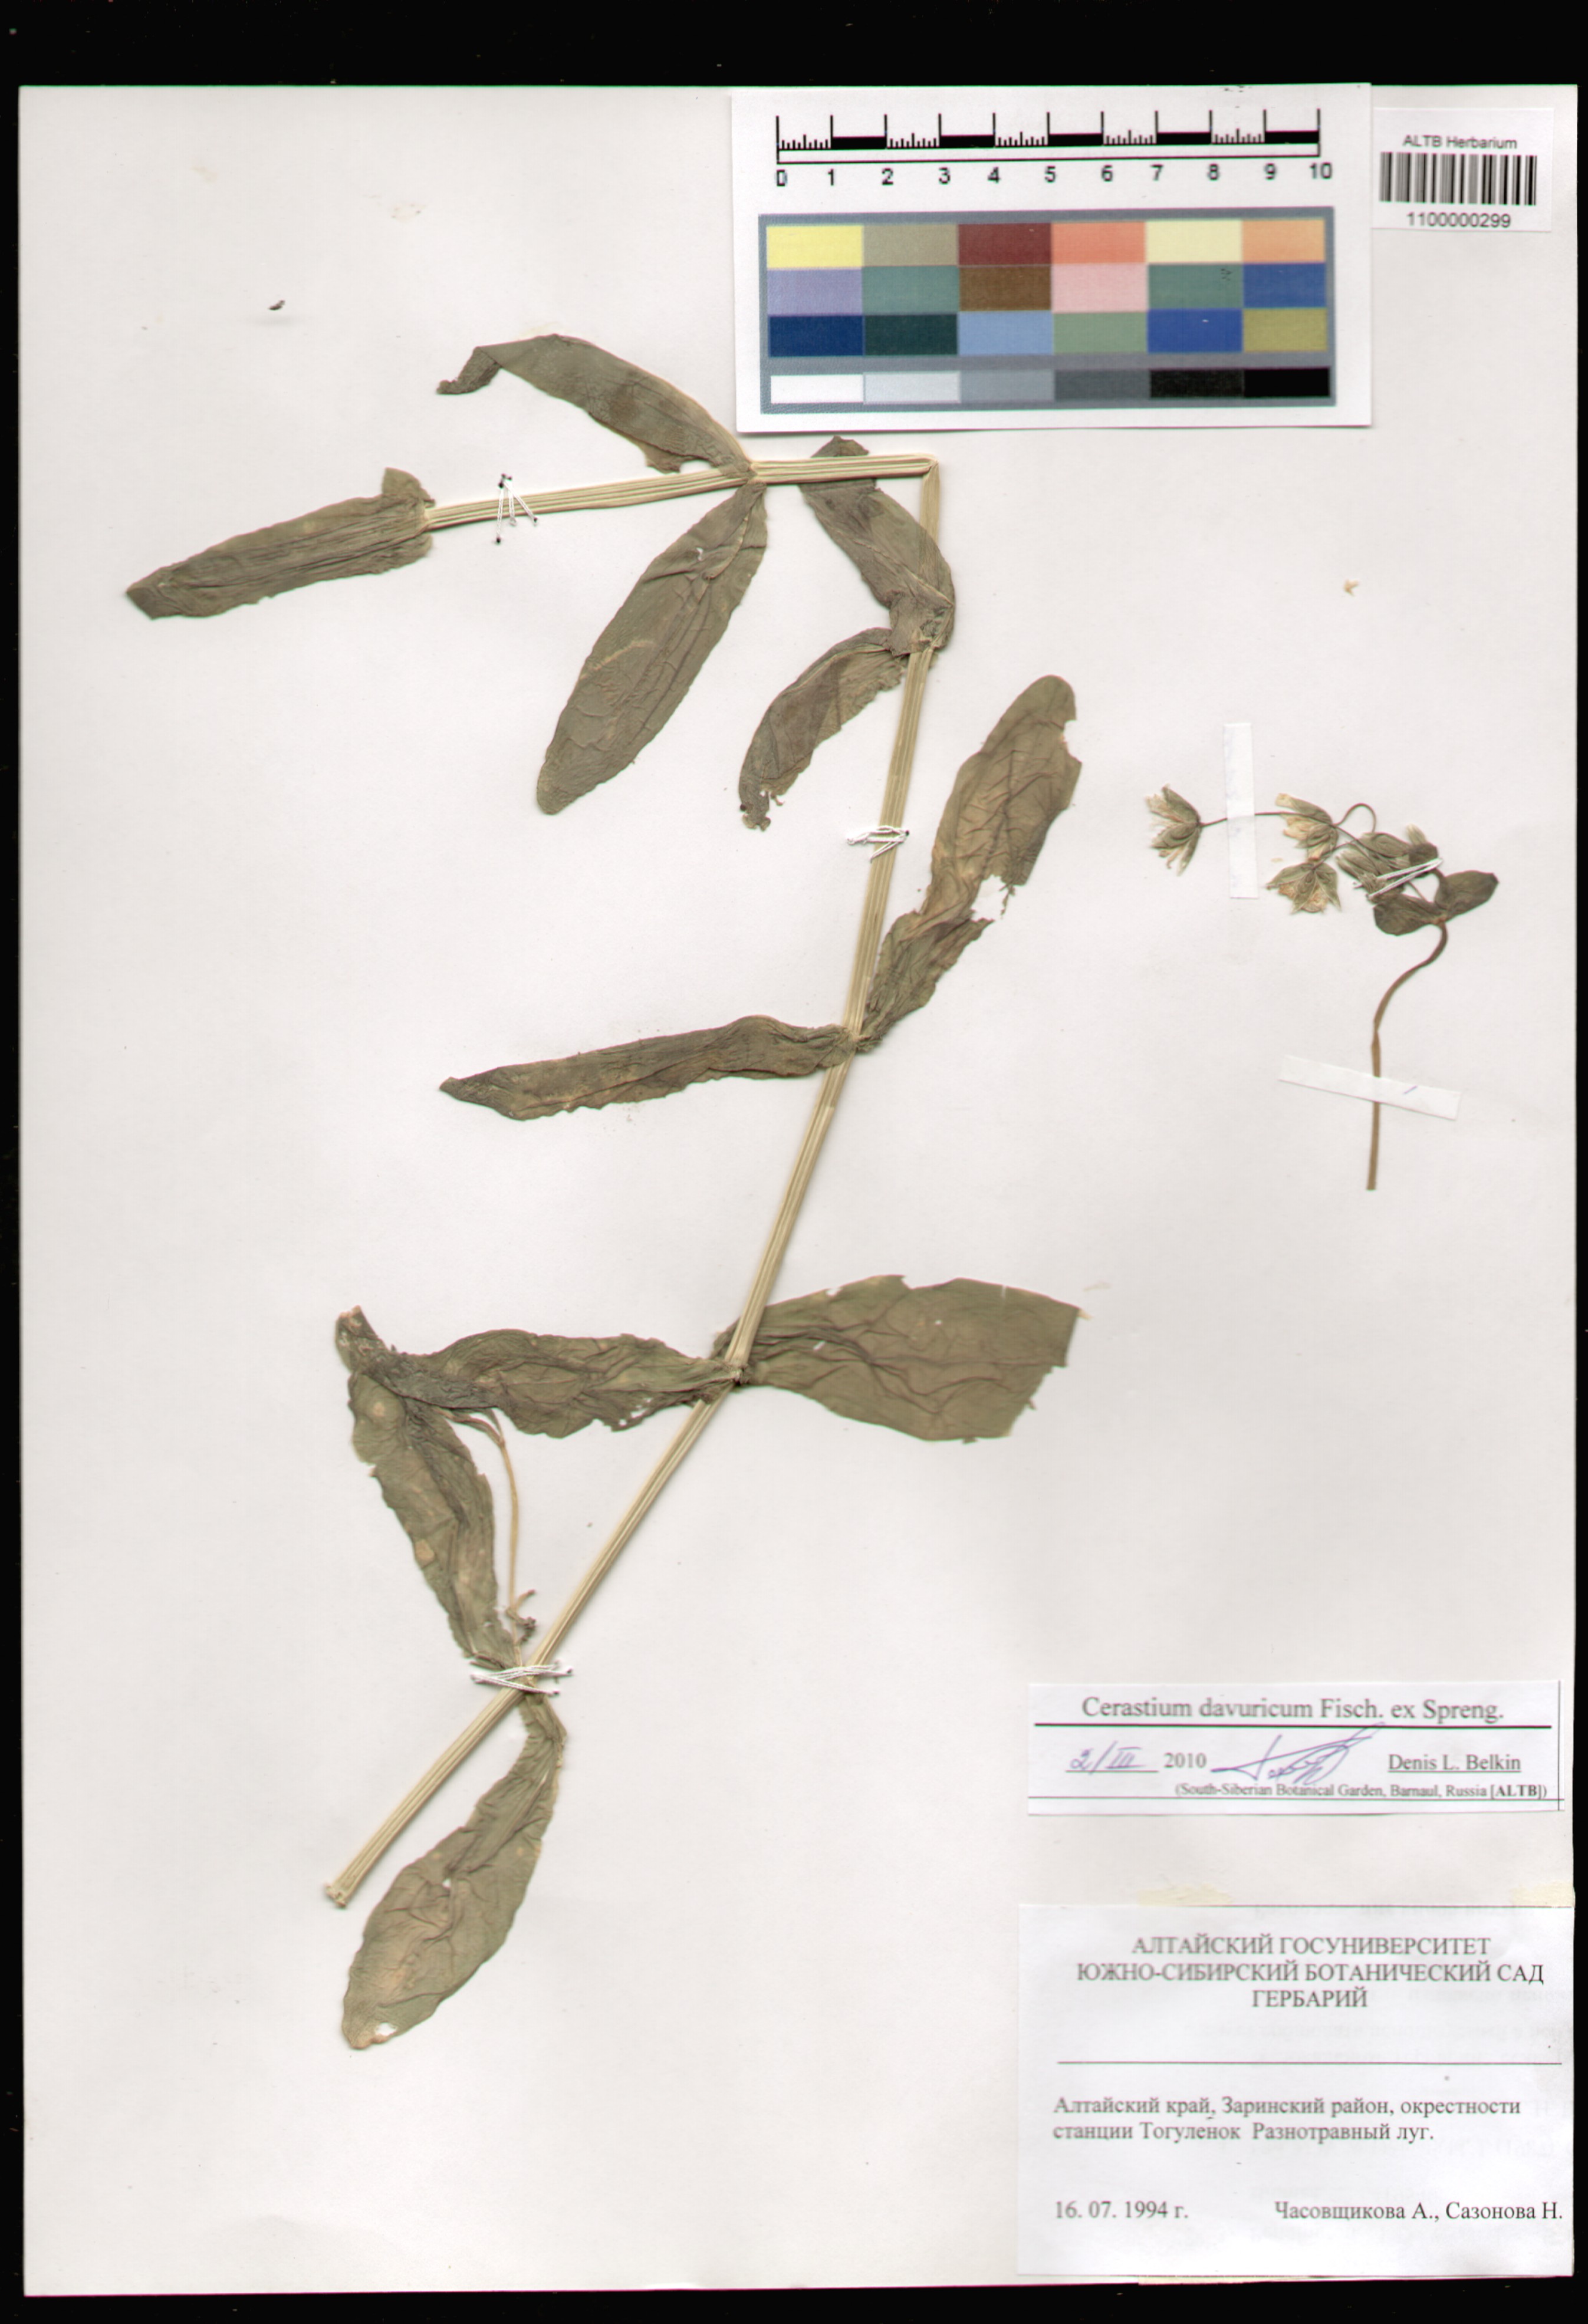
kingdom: Plantae
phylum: Tracheophyta
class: Magnoliopsida
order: Caryophyllales
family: Caryophyllaceae
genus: Dichodon
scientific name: Dichodon davuricum
